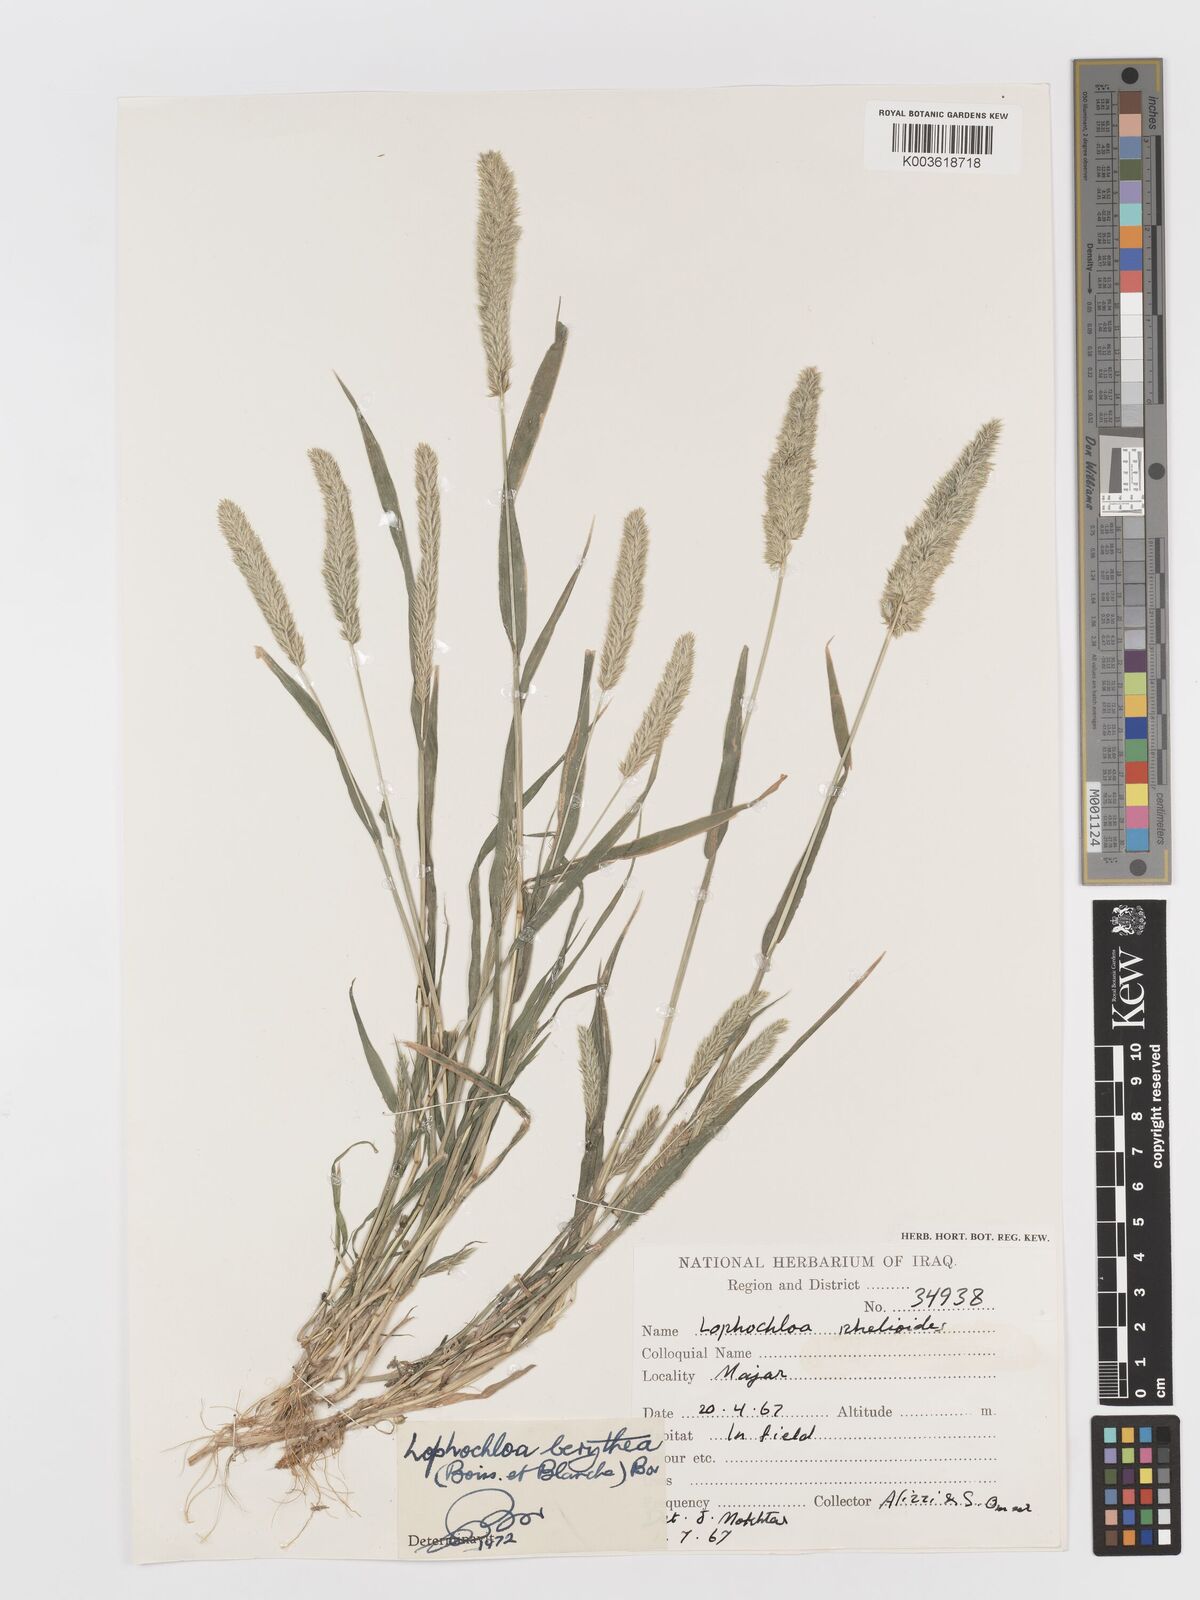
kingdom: Plantae
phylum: Tracheophyta
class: Liliopsida
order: Poales
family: Poaceae
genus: Rostraria
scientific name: Rostraria smyrnaea
